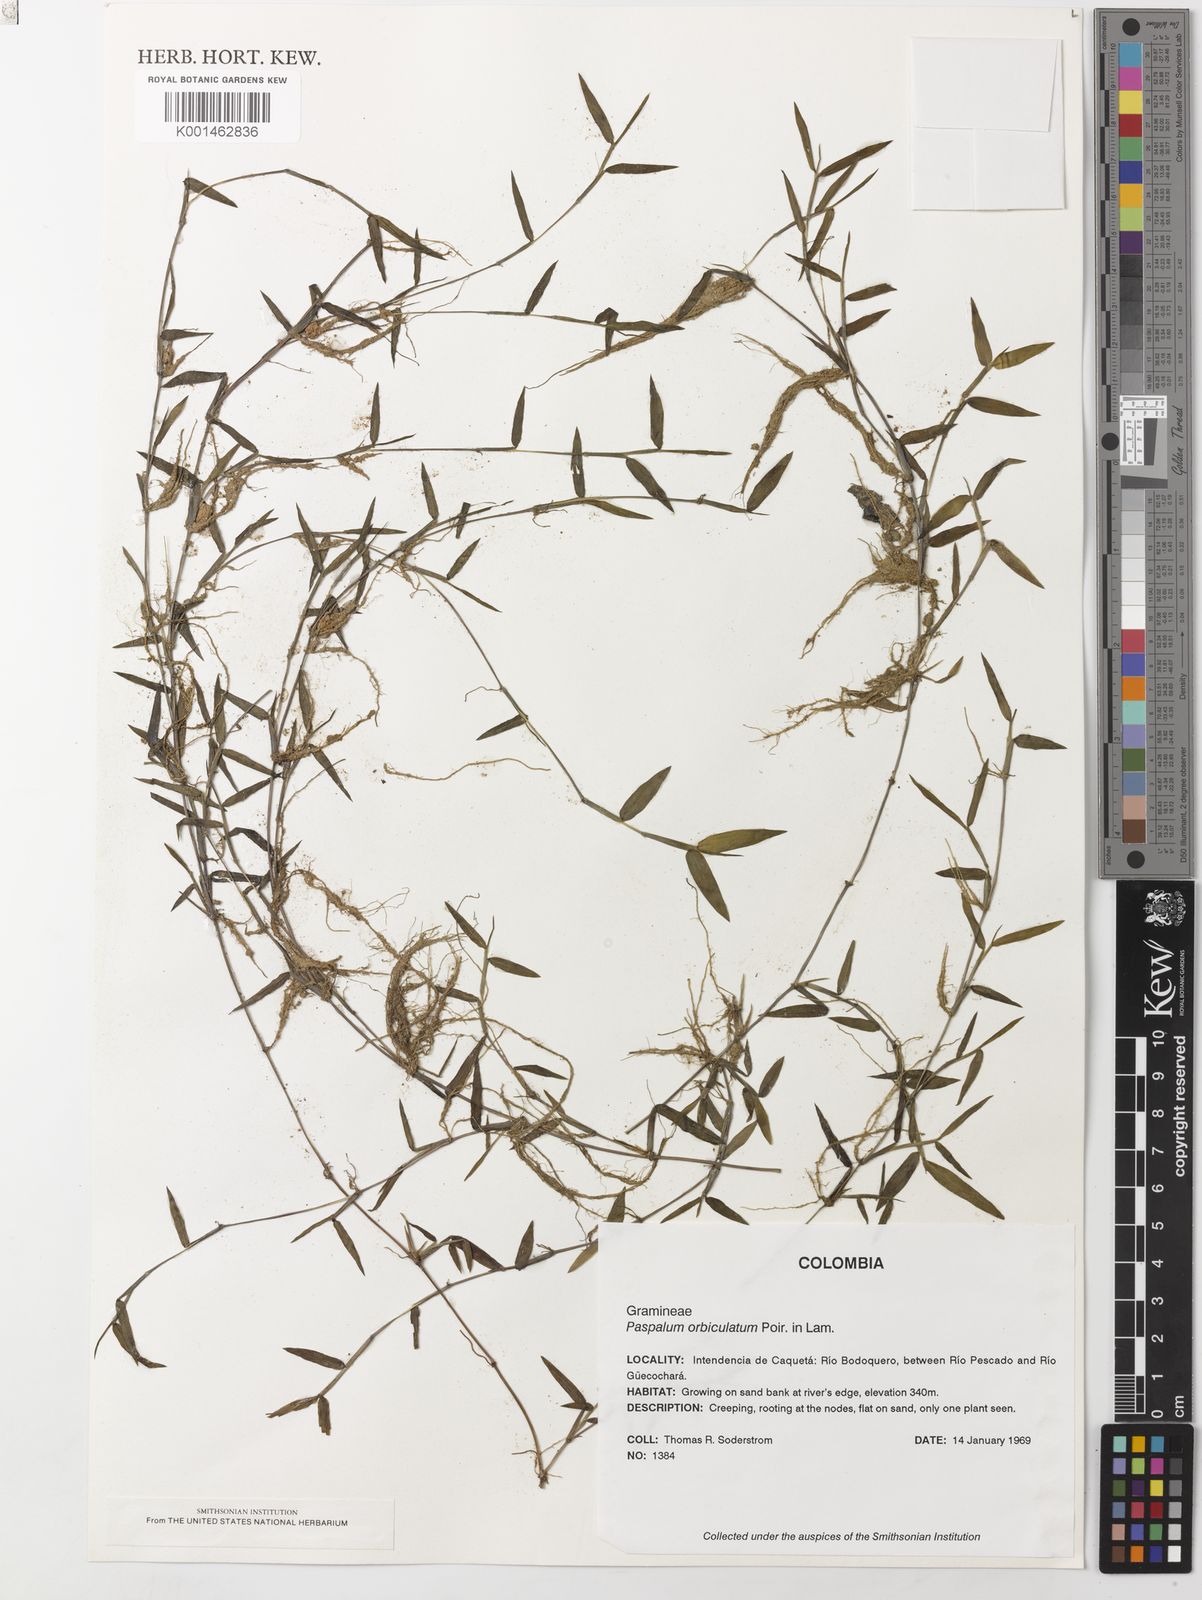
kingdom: Plantae
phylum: Tracheophyta
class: Liliopsida
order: Poales
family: Poaceae
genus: Paspalum
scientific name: Paspalum orbiculatum
